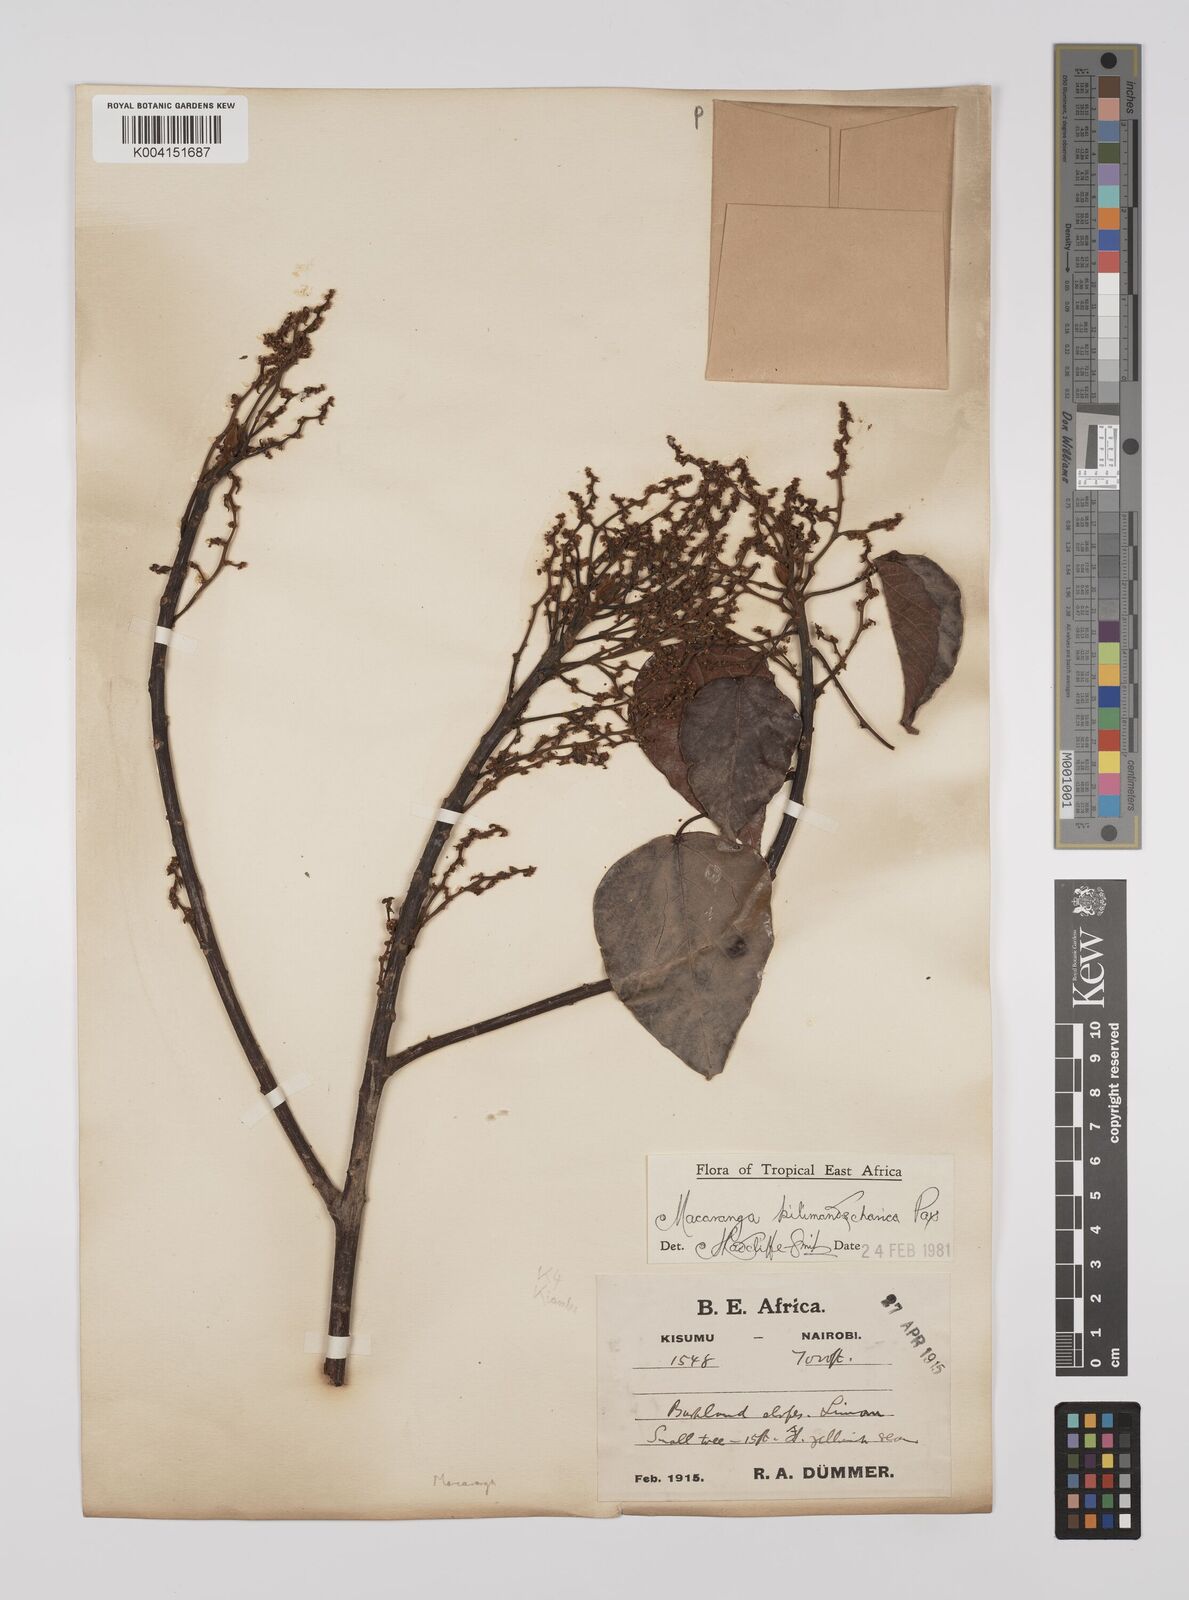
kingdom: Plantae
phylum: Tracheophyta
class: Magnoliopsida
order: Malpighiales
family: Euphorbiaceae
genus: Macaranga
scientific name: Macaranga
